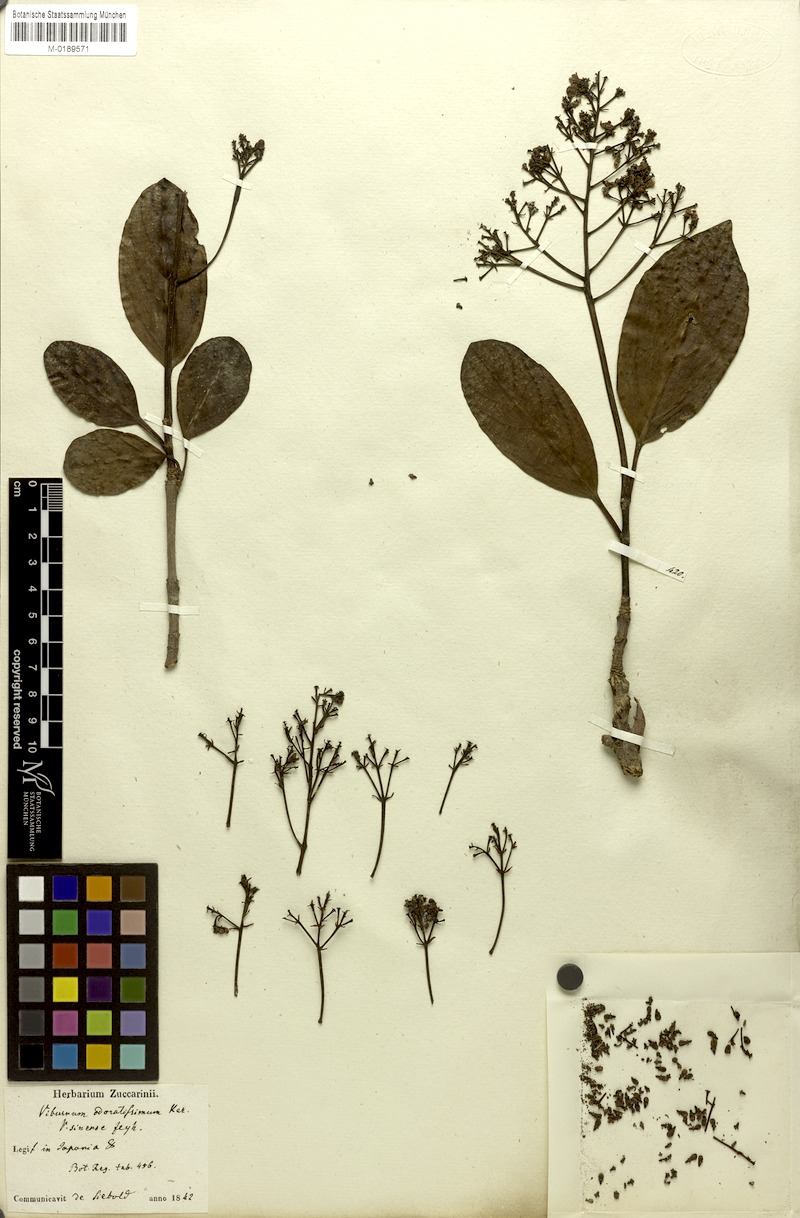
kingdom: Plantae
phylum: Tracheophyta
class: Magnoliopsida
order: Dipsacales
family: Viburnaceae
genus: Viburnum
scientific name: Viburnum odoratissimum
